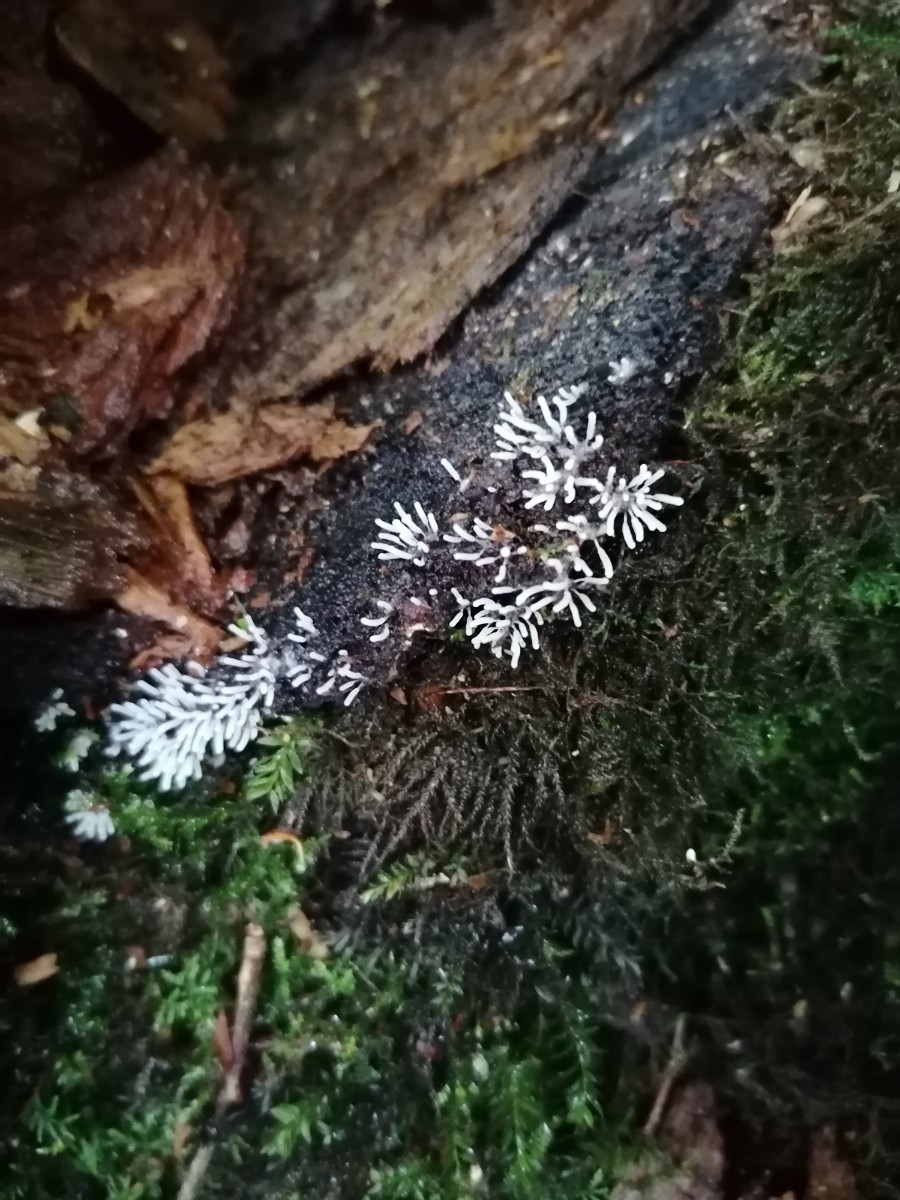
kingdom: Protozoa
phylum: Mycetozoa
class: Protosteliomycetes
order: Ceratiomyxales
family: Ceratiomyxaceae
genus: Ceratiomyxa
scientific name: Ceratiomyxa fruticulosa
